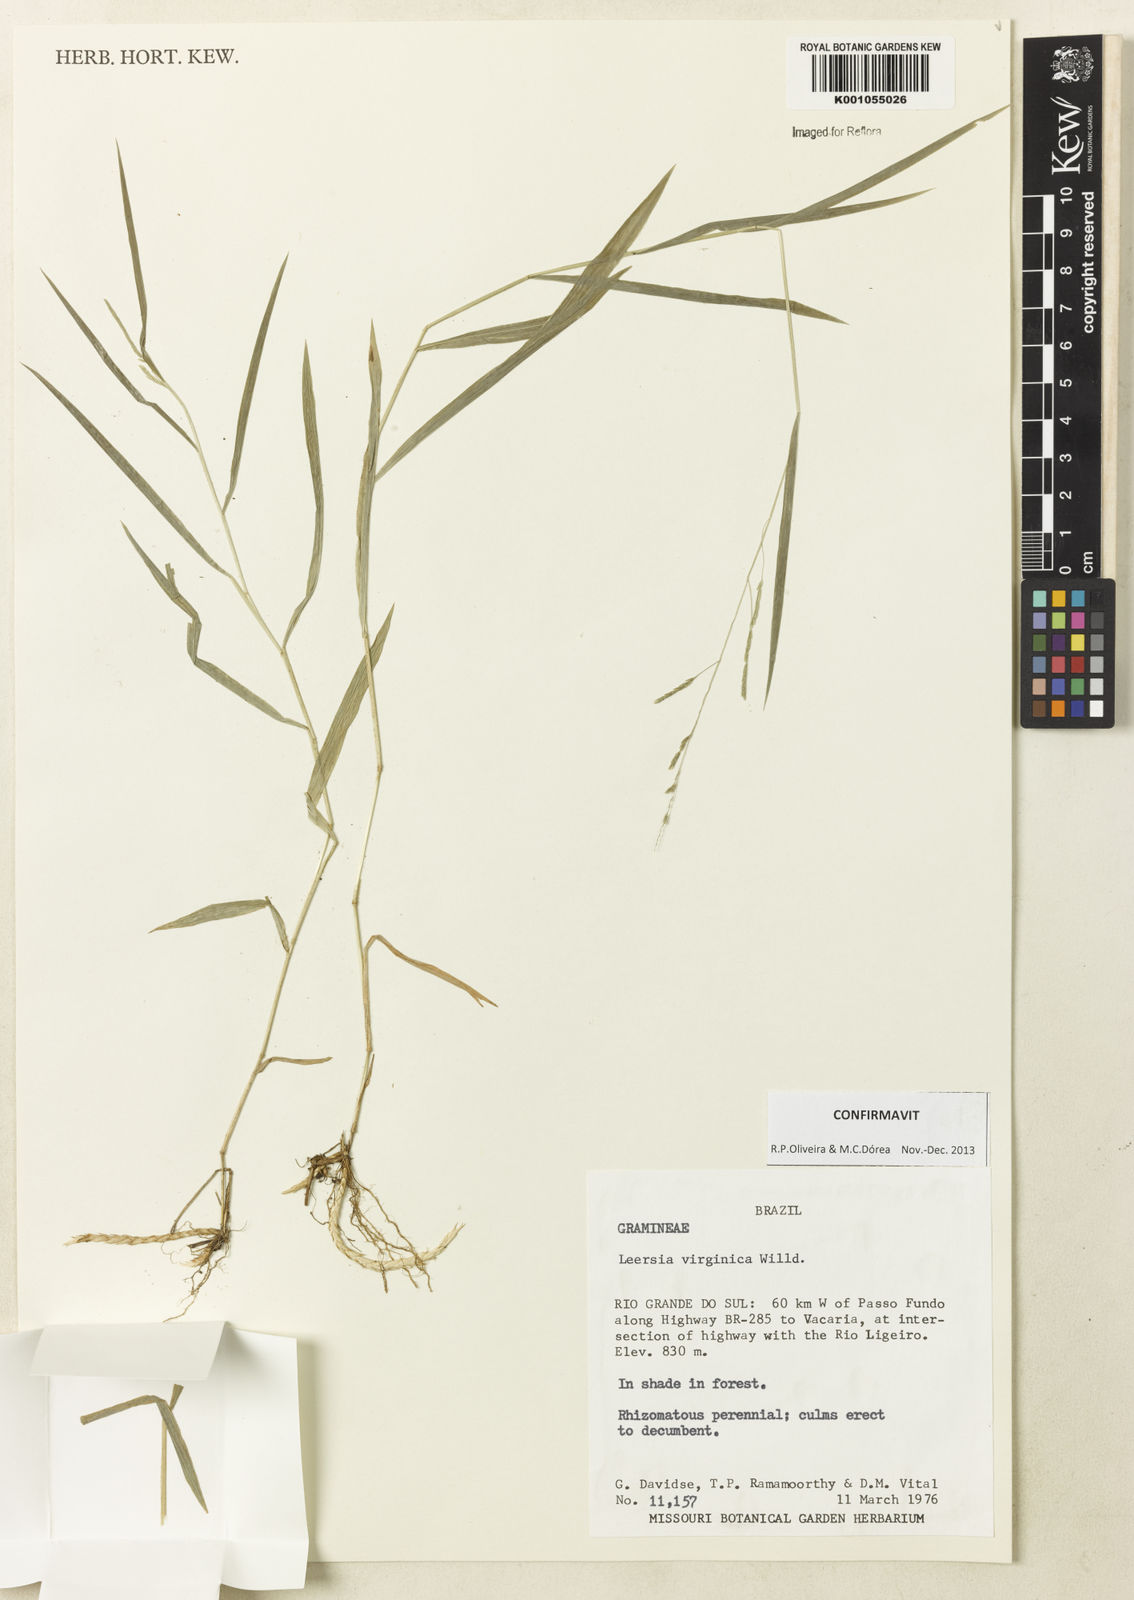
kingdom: Plantae
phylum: Tracheophyta
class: Liliopsida
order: Poales
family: Poaceae
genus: Leersia
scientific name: Leersia virginica
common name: White cutgrass
